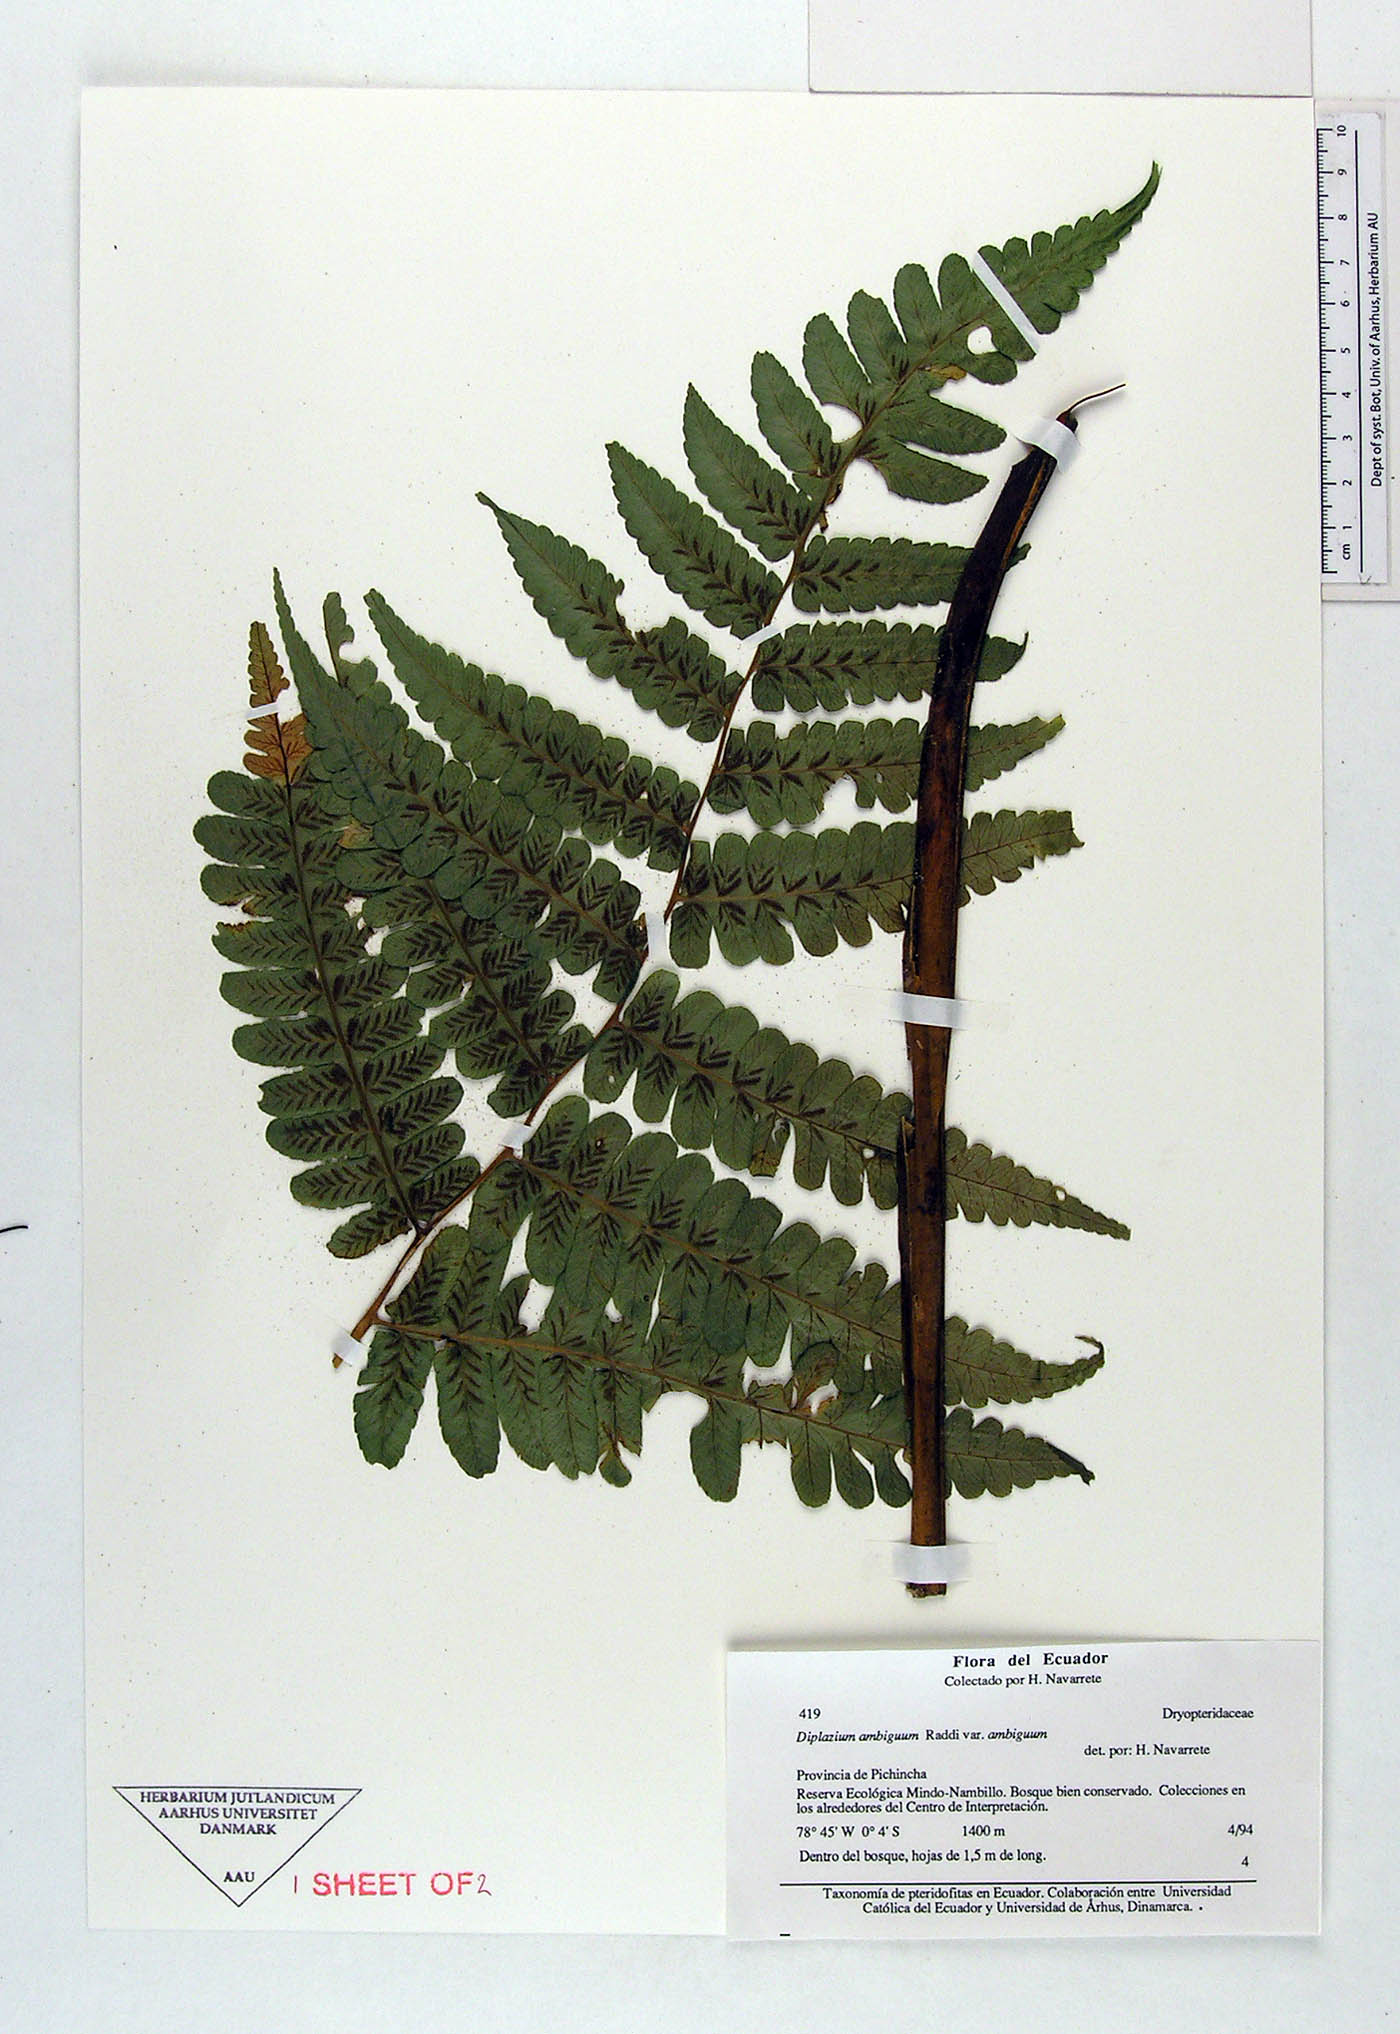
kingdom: Plantae
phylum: Tracheophyta
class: Polypodiopsida
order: Polypodiales
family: Athyriaceae
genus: Diplazium
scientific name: Diplazium ambiguum
